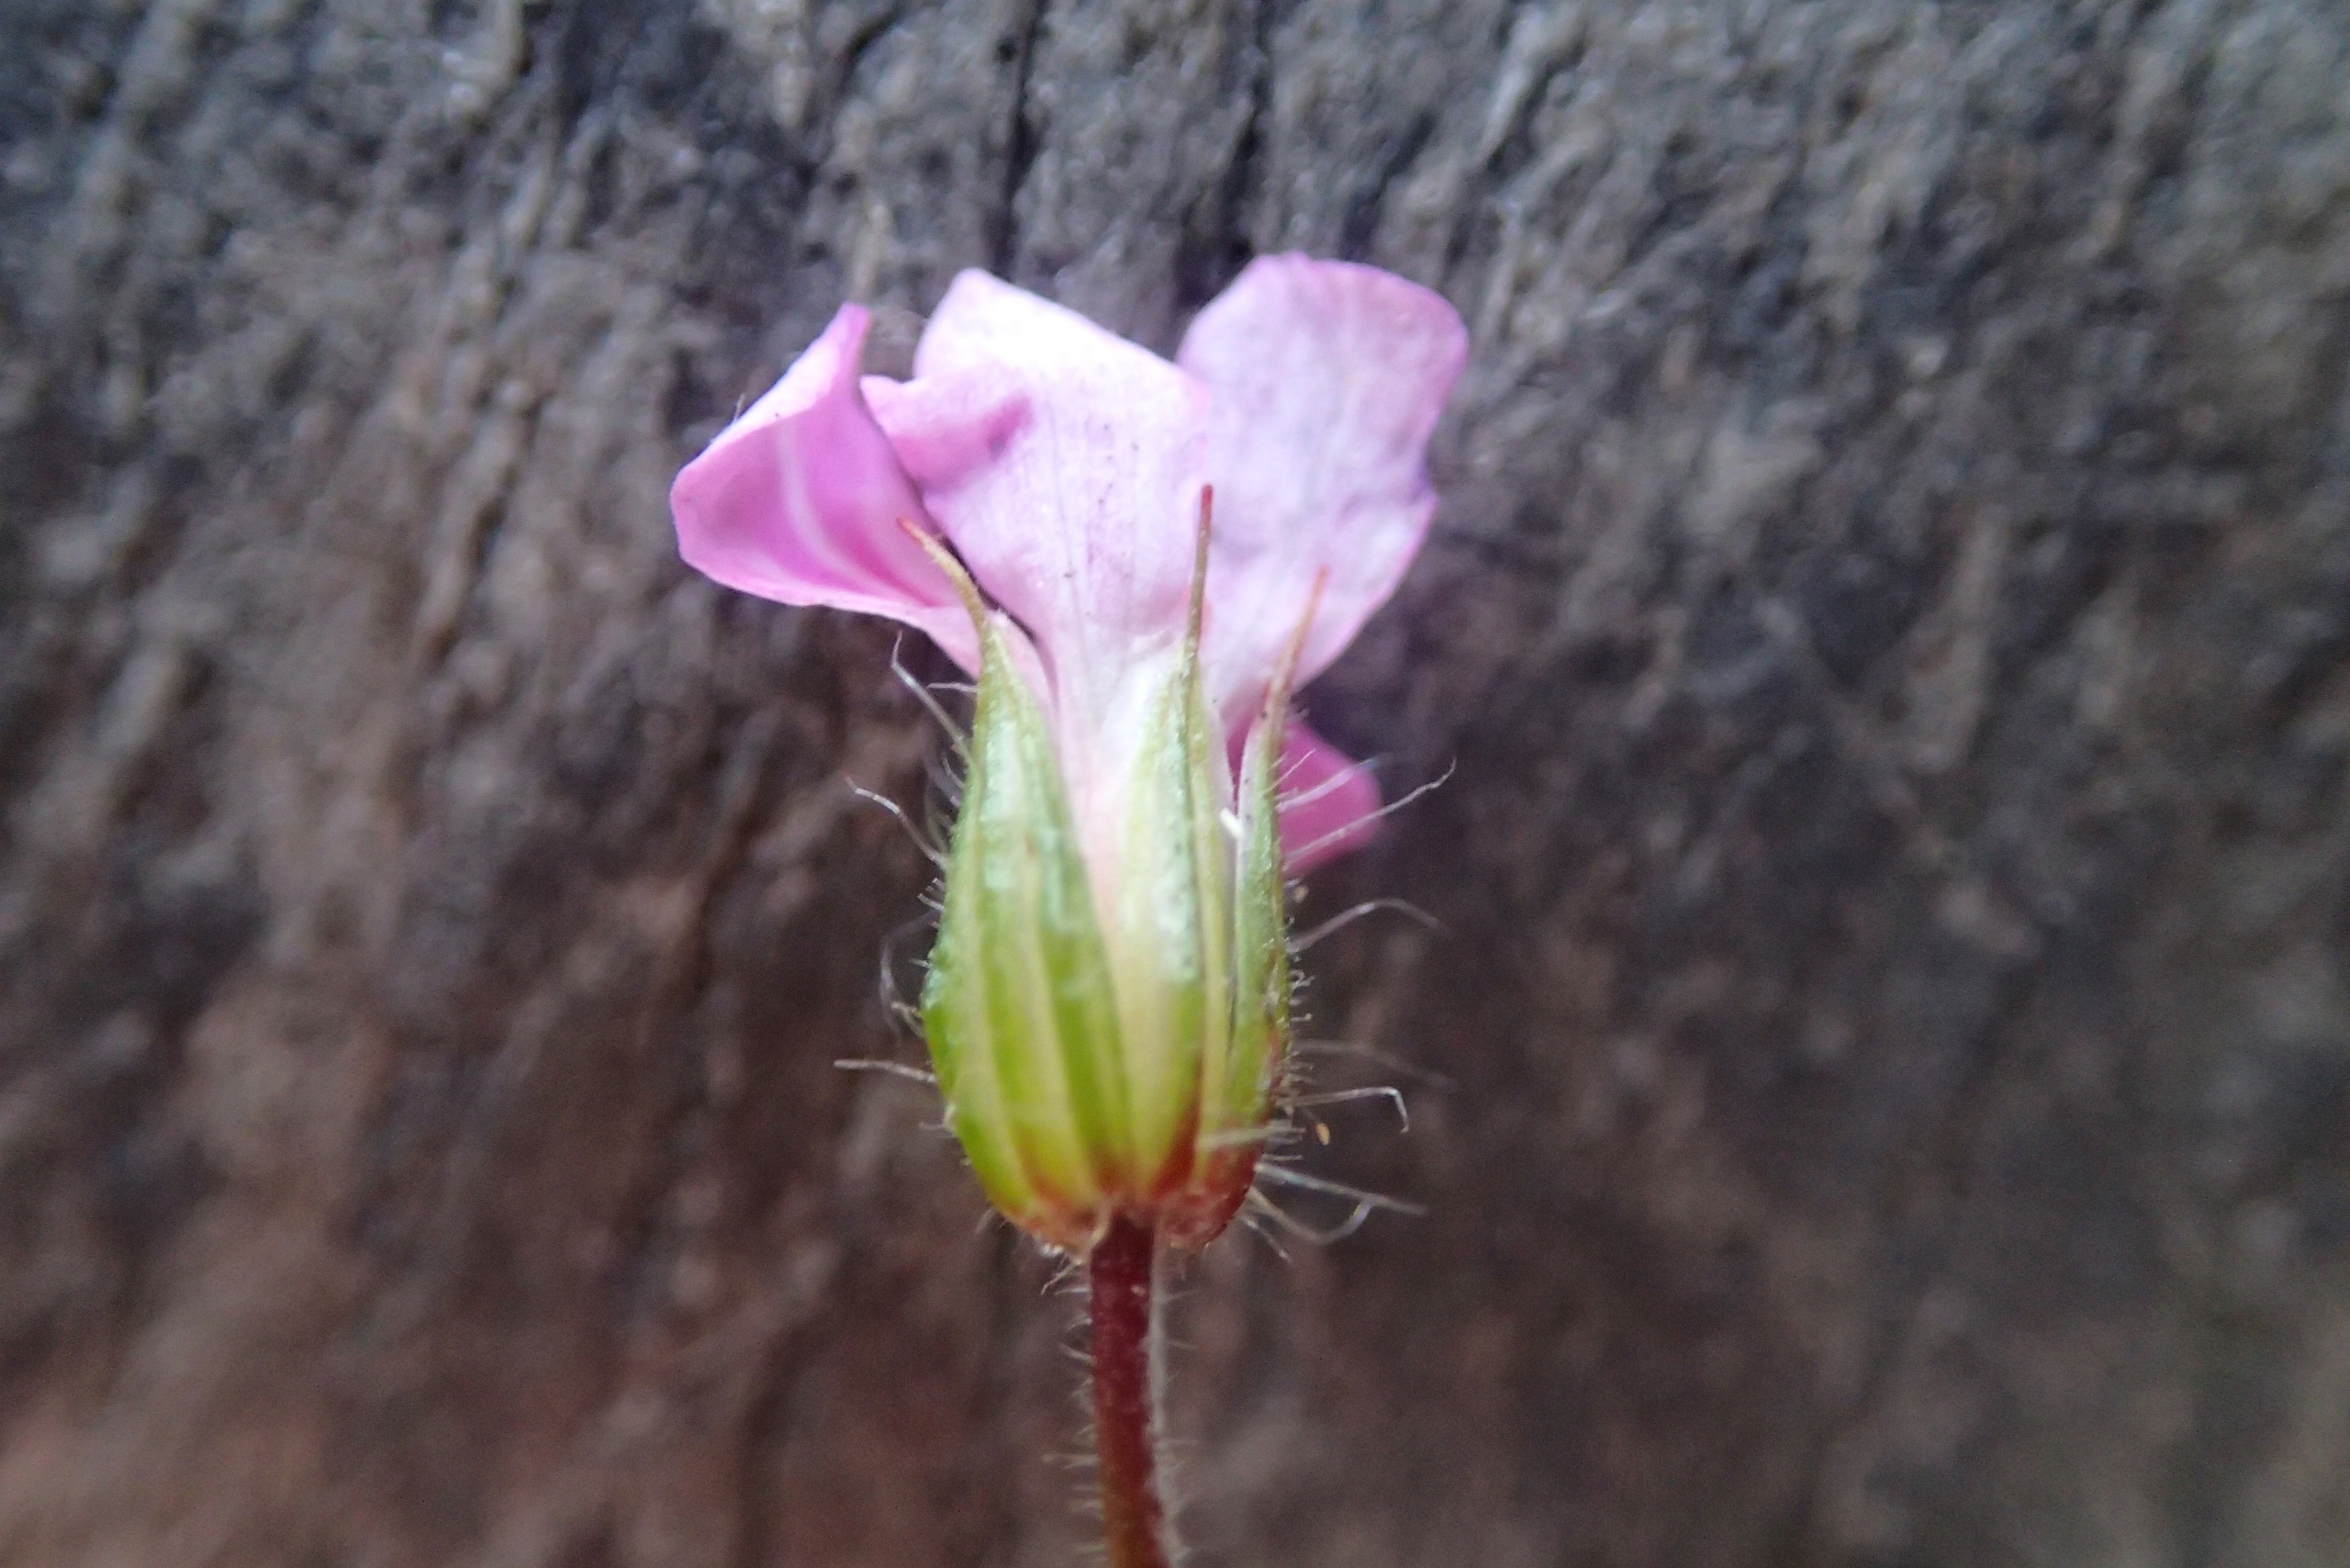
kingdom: Plantae
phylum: Tracheophyta
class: Magnoliopsida
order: Geraniales
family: Geraniaceae
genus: Geranium
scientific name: Geranium robertianum
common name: Stinkende storkenæb
